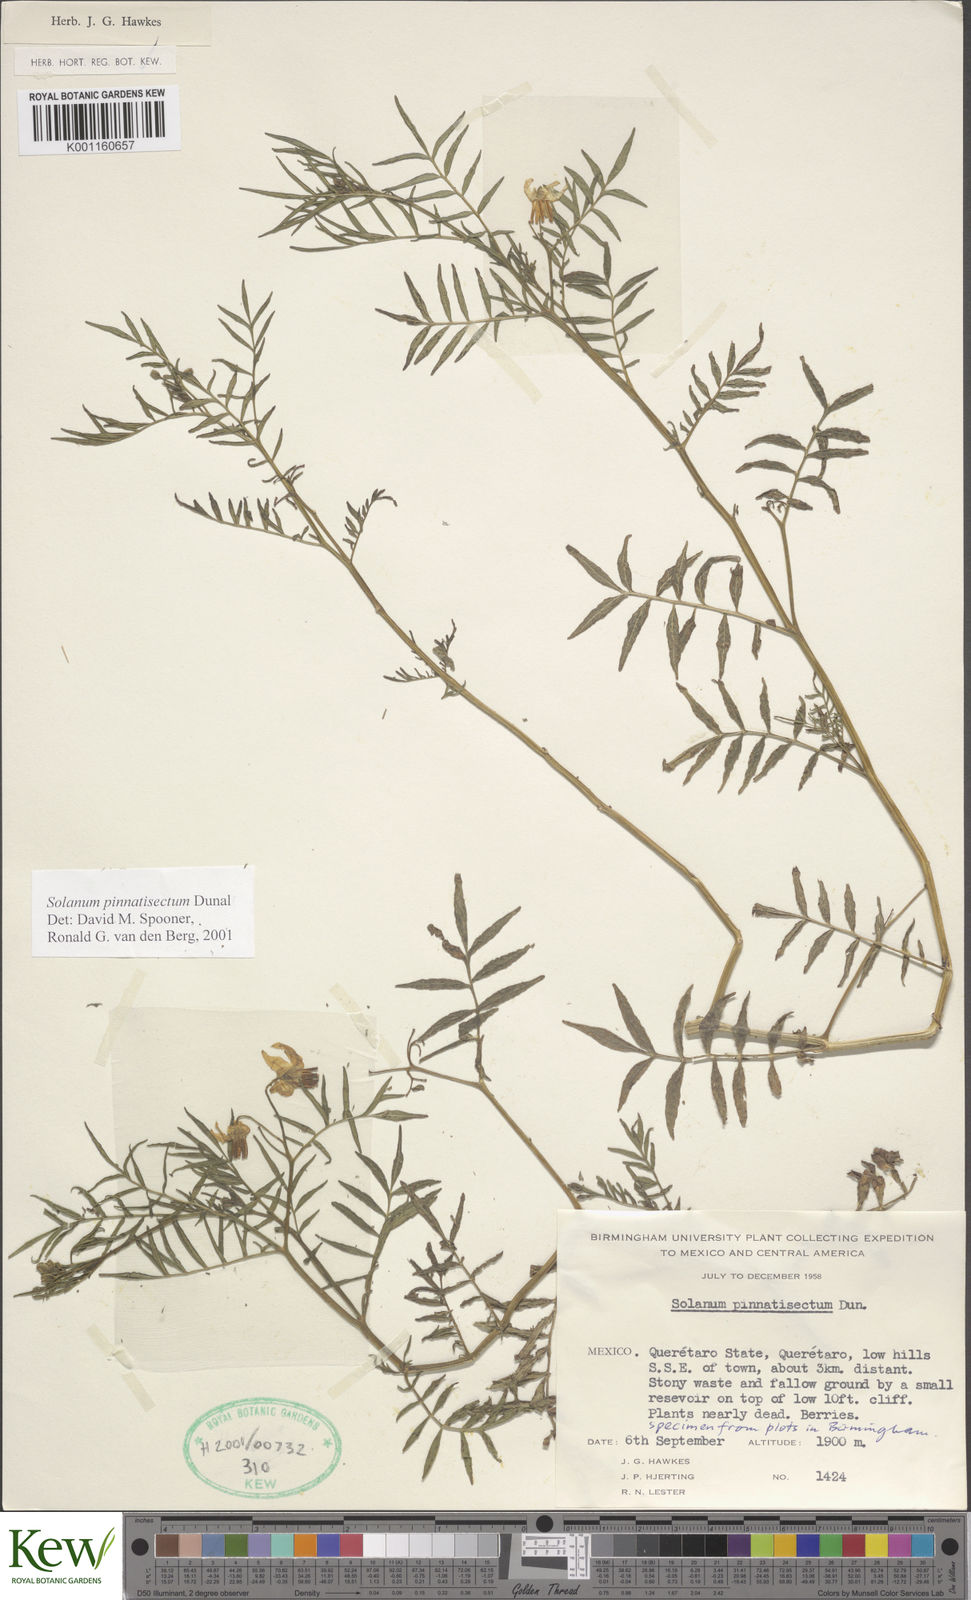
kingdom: Plantae
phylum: Tracheophyta
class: Magnoliopsida
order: Solanales
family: Solanaceae
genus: Solanum
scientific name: Solanum pinnatisectum
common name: Tansyleaf nightshade
